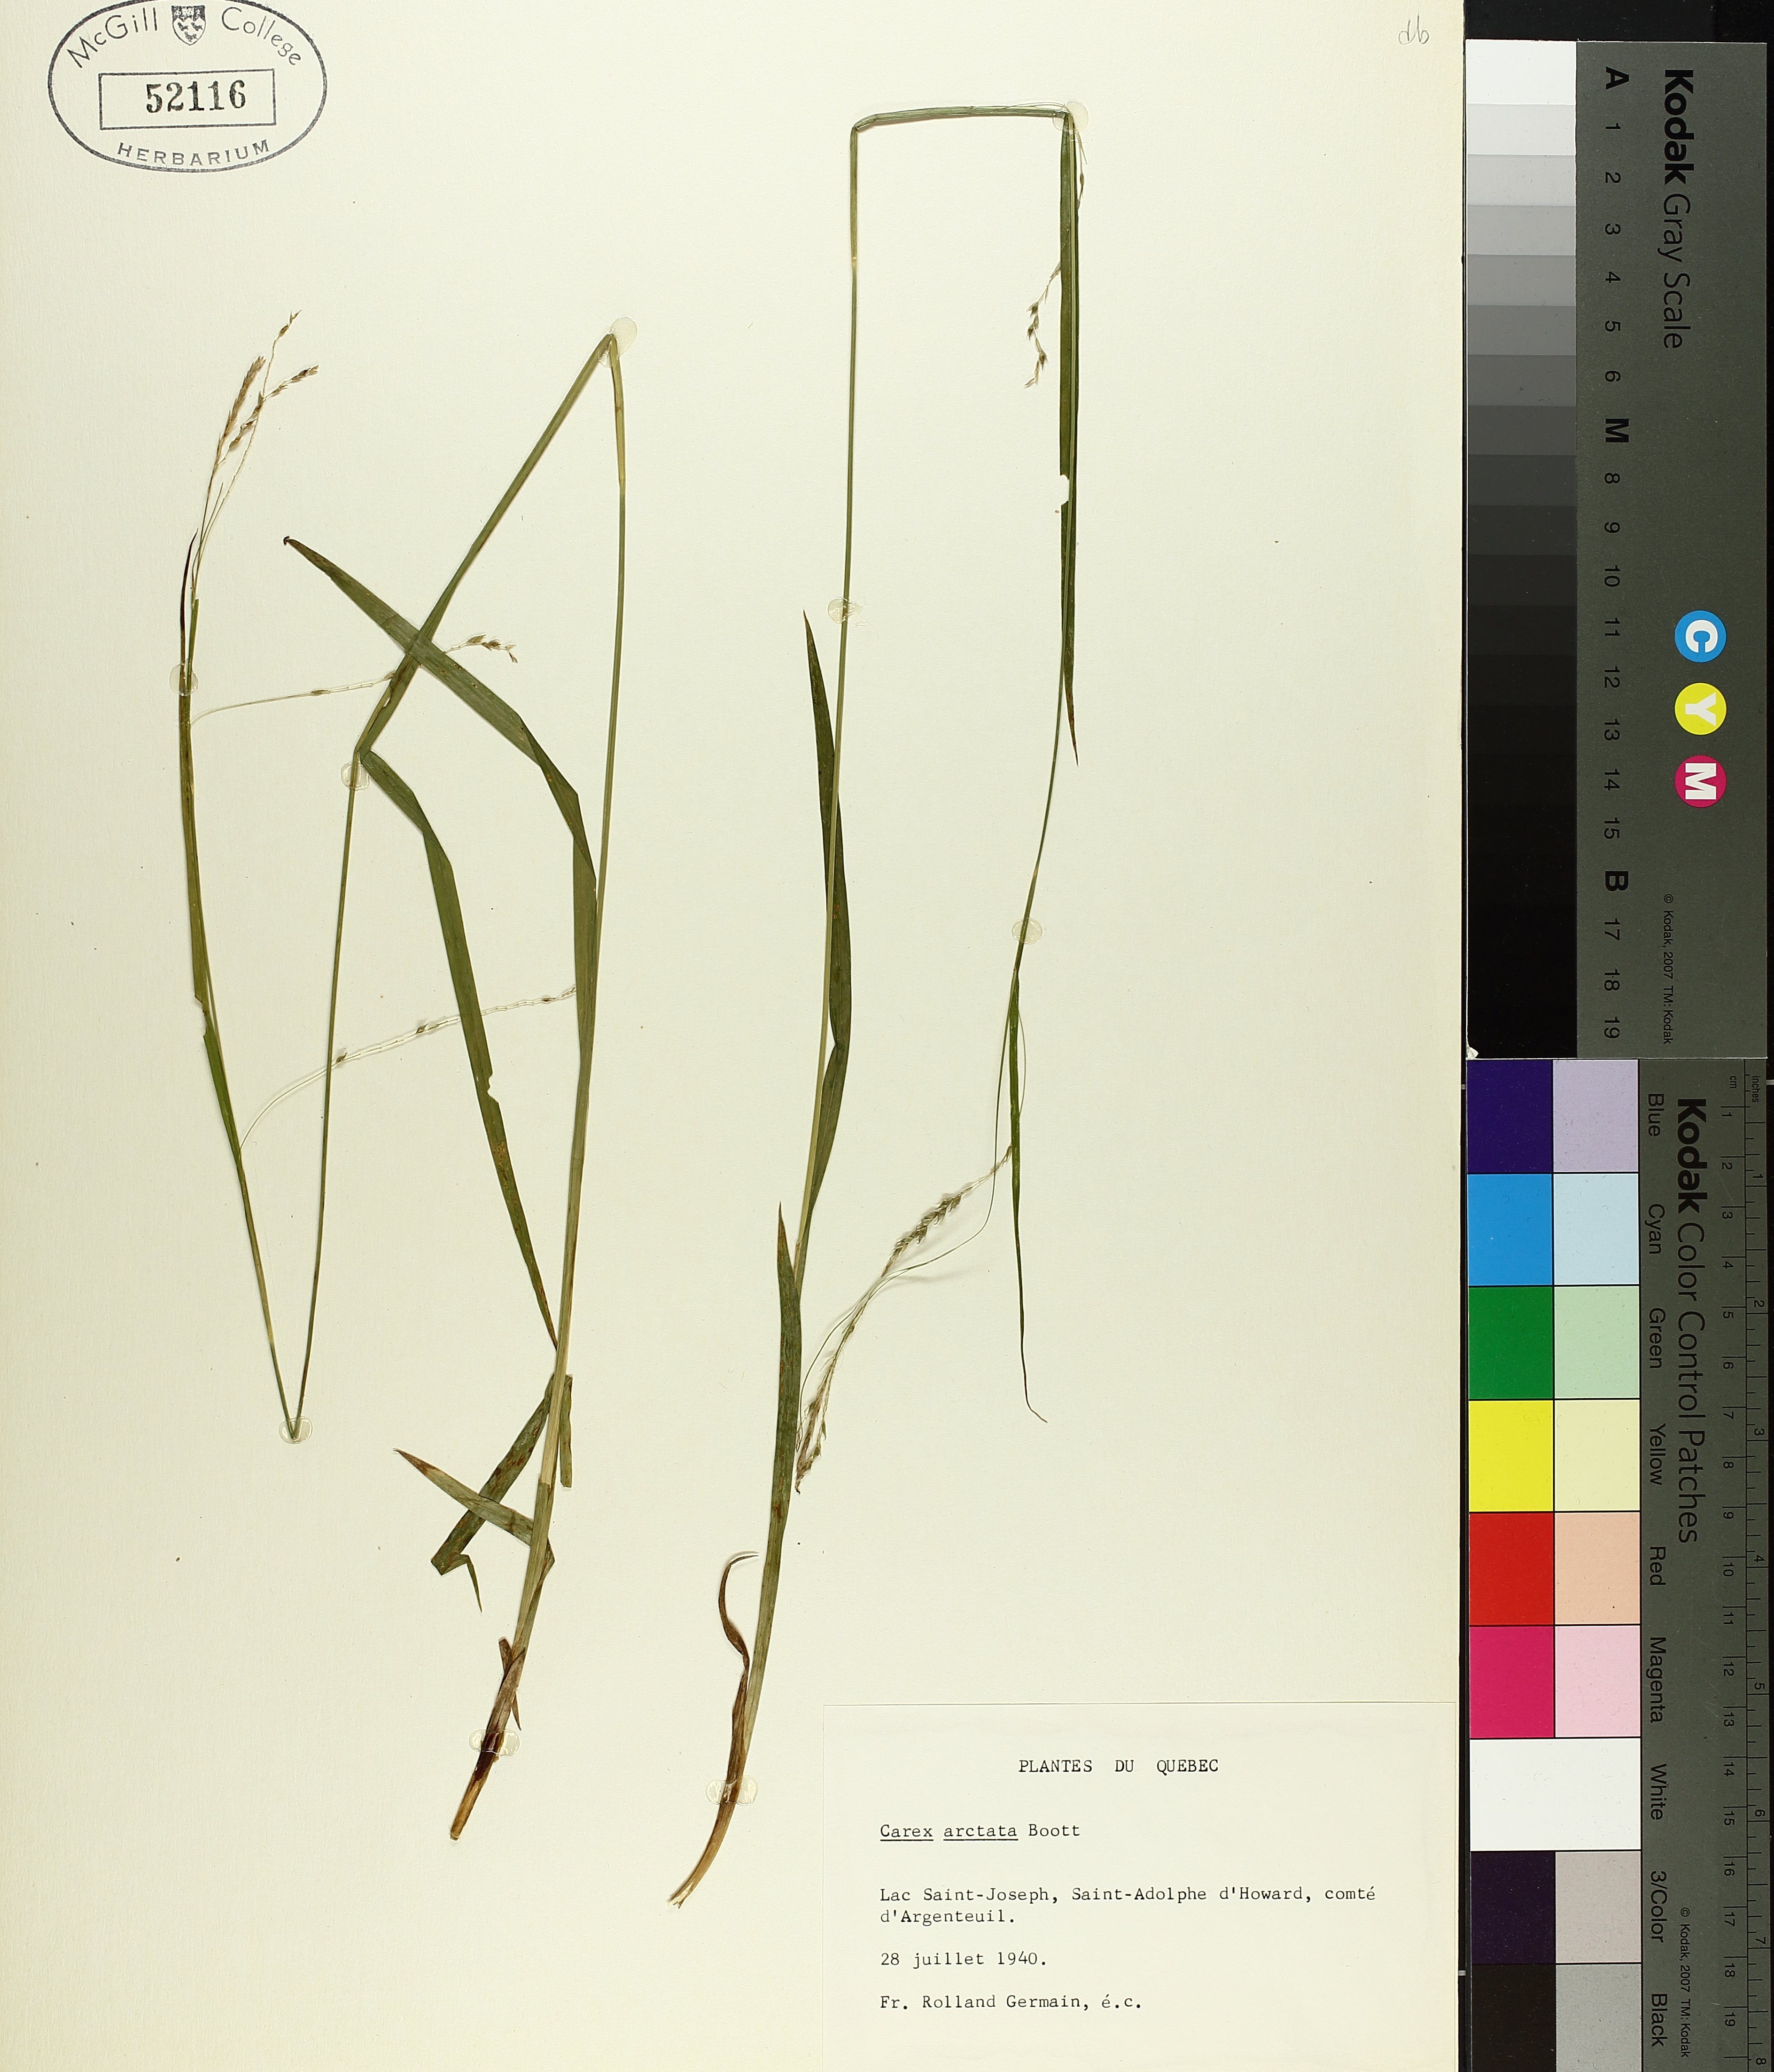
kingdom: Plantae
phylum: Tracheophyta
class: Liliopsida
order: Poales
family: Cyperaceae
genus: Carex
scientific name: Carex arctata
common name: Black sedge
